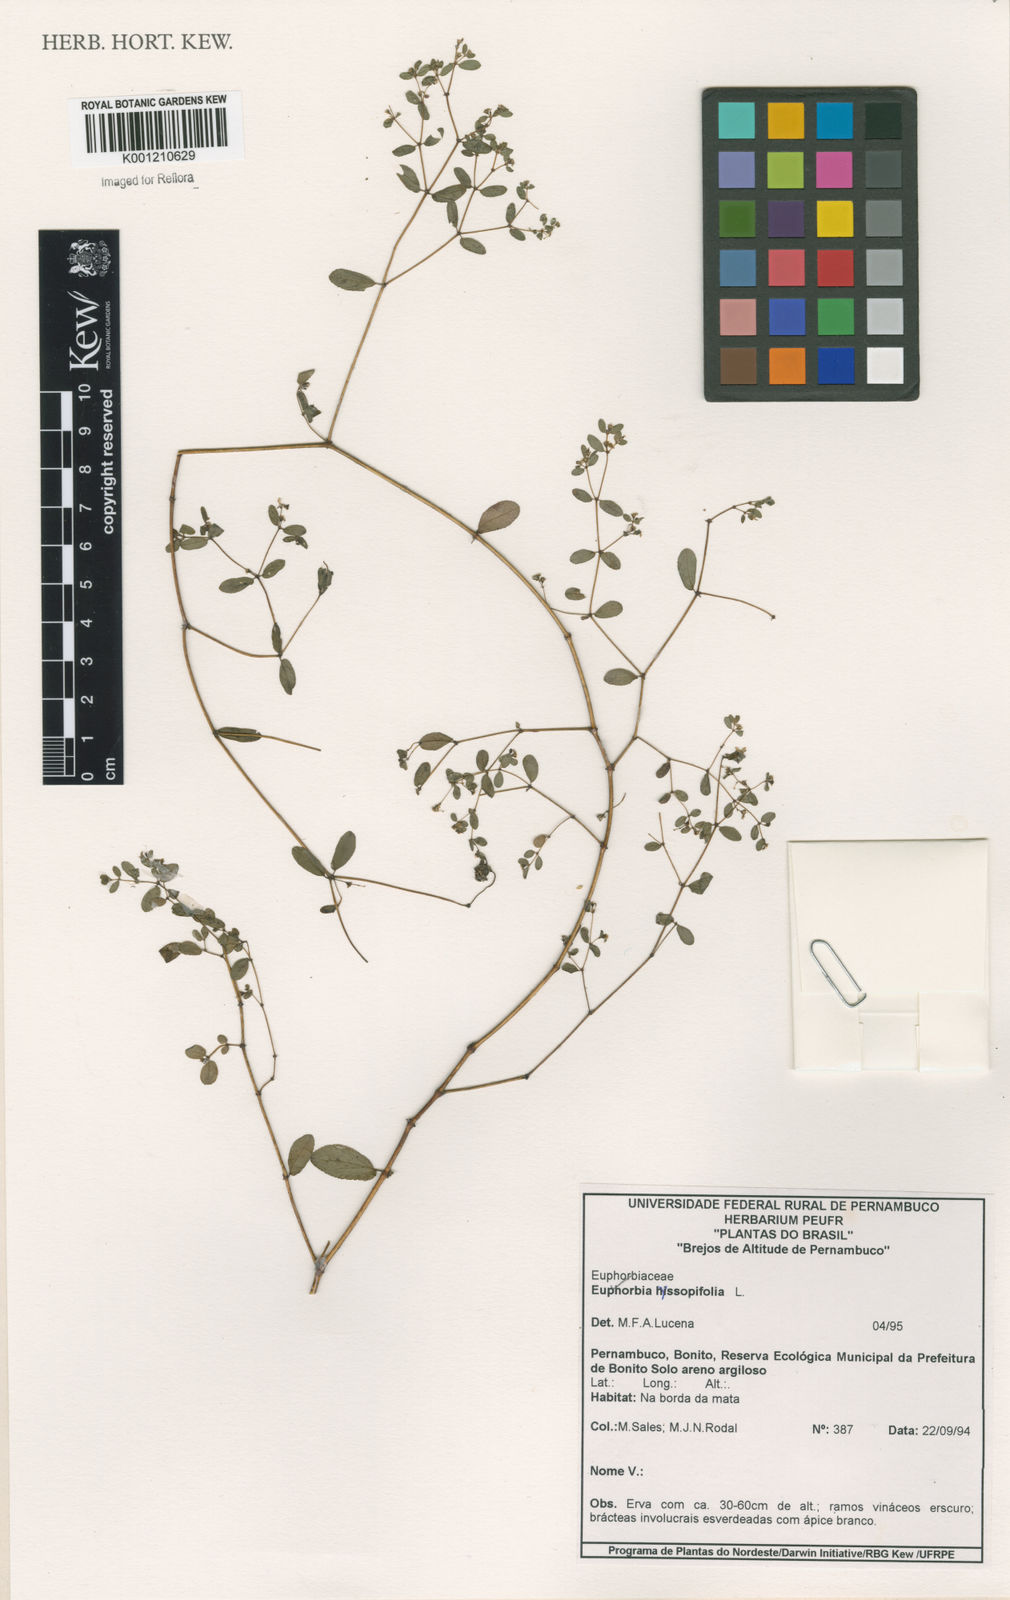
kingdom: Plantae
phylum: Tracheophyta
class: Magnoliopsida
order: Malpighiales
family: Euphorbiaceae
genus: Euphorbia
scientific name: Euphorbia hyssopifolia
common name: Hyssopleaf sandmat
